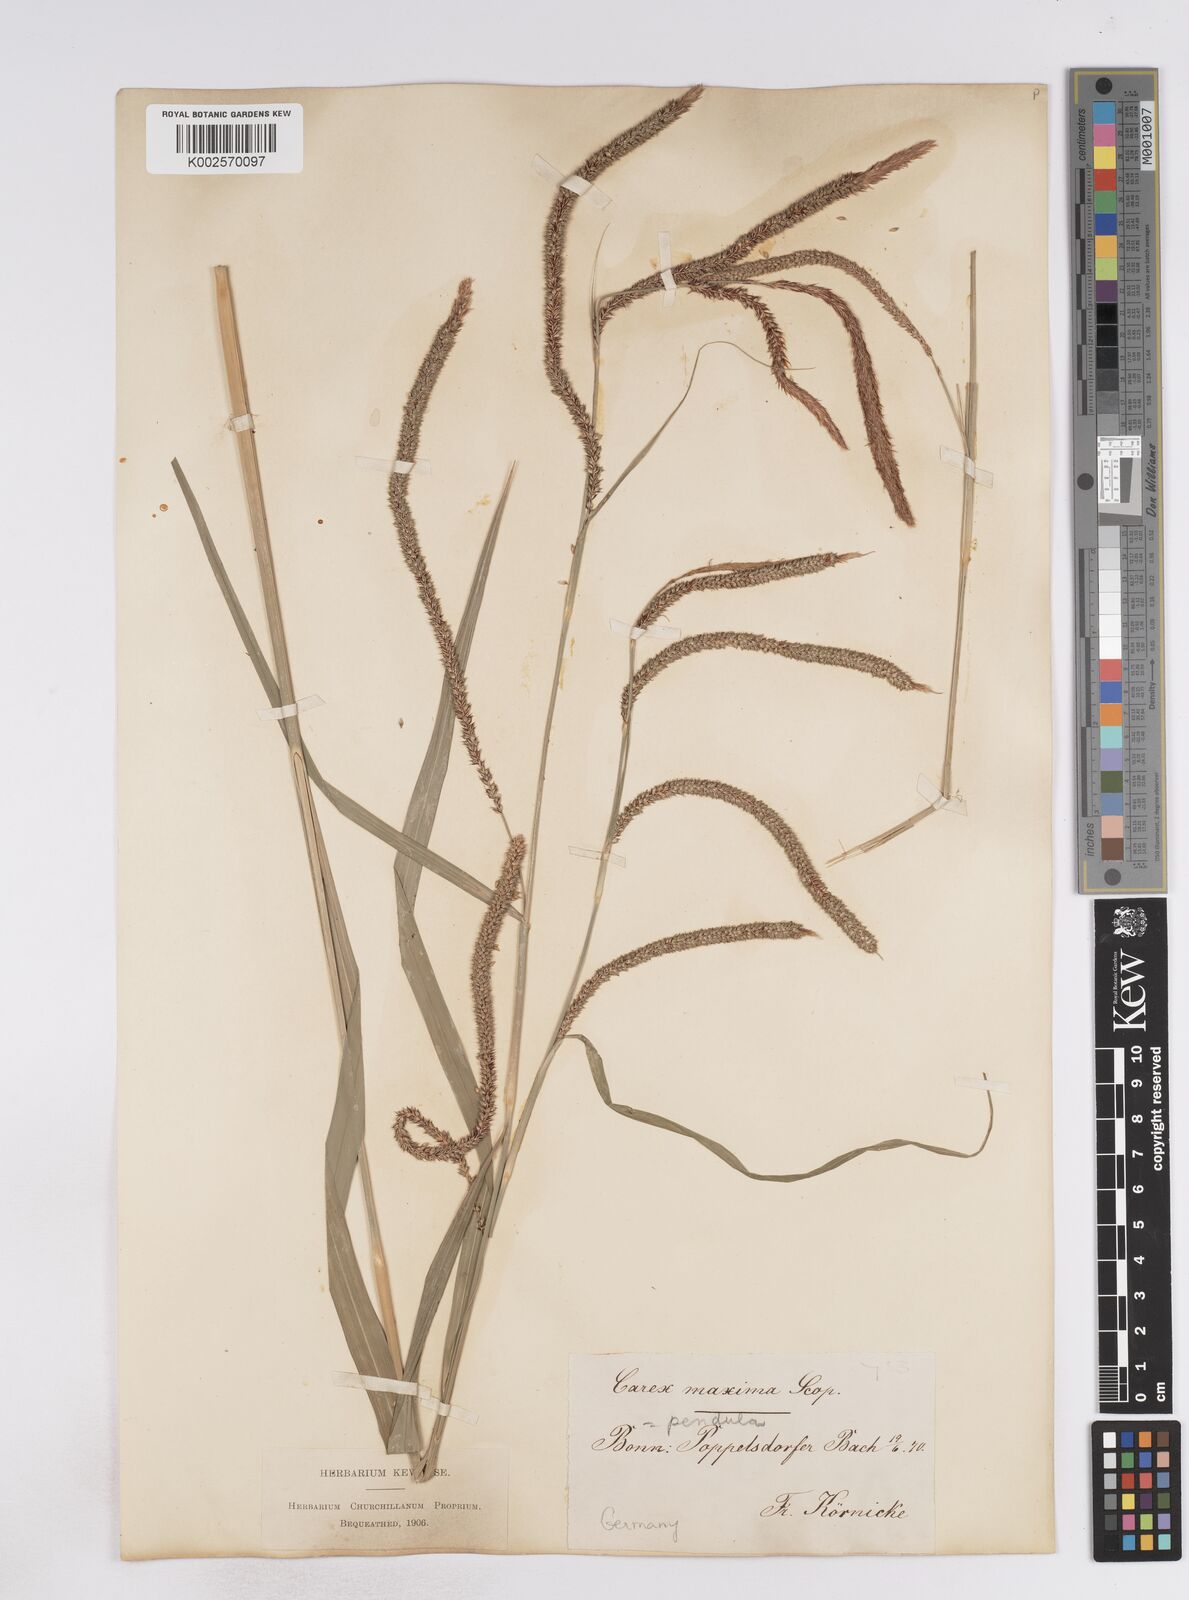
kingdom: Plantae
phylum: Tracheophyta
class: Liliopsida
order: Poales
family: Cyperaceae
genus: Carex
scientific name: Carex pendula
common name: Pendulous sedge
